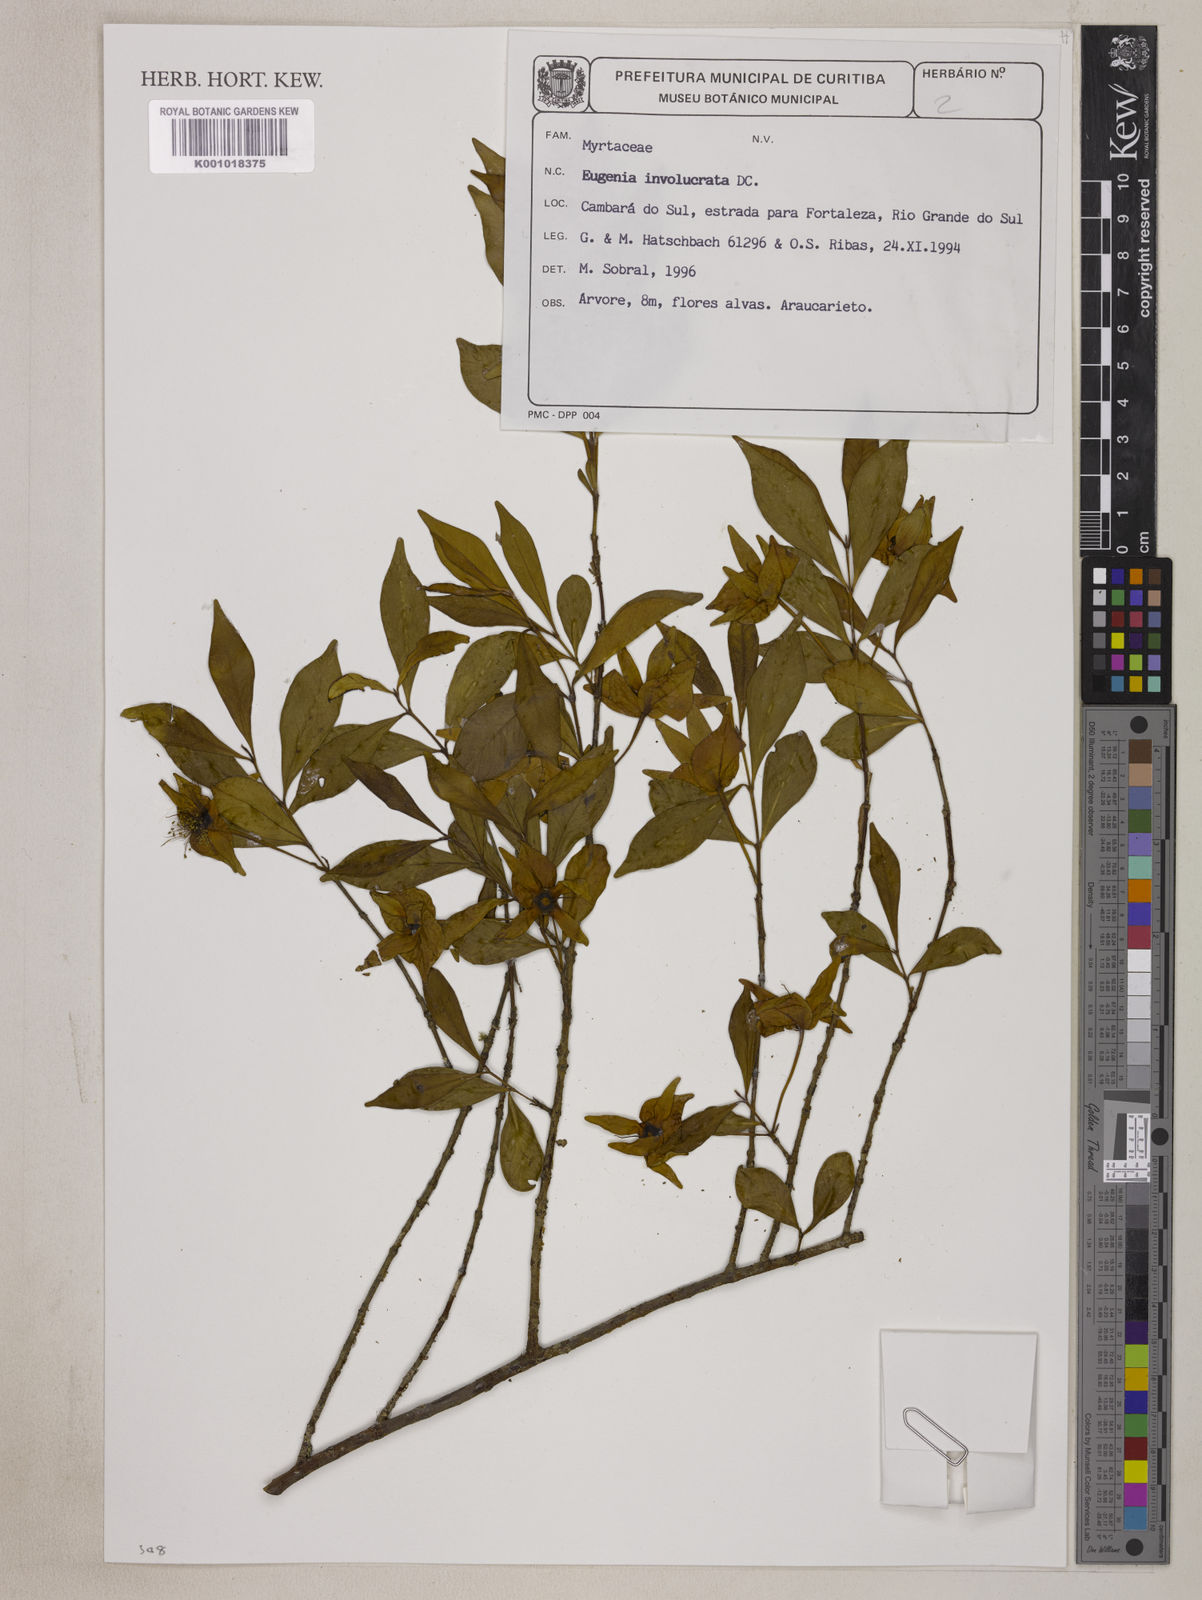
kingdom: Plantae
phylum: Tracheophyta
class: Magnoliopsida
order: Myrtales
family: Myrtaceae
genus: Eugenia
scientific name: Eugenia involucrata
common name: Cherry-of-the-rio grande
